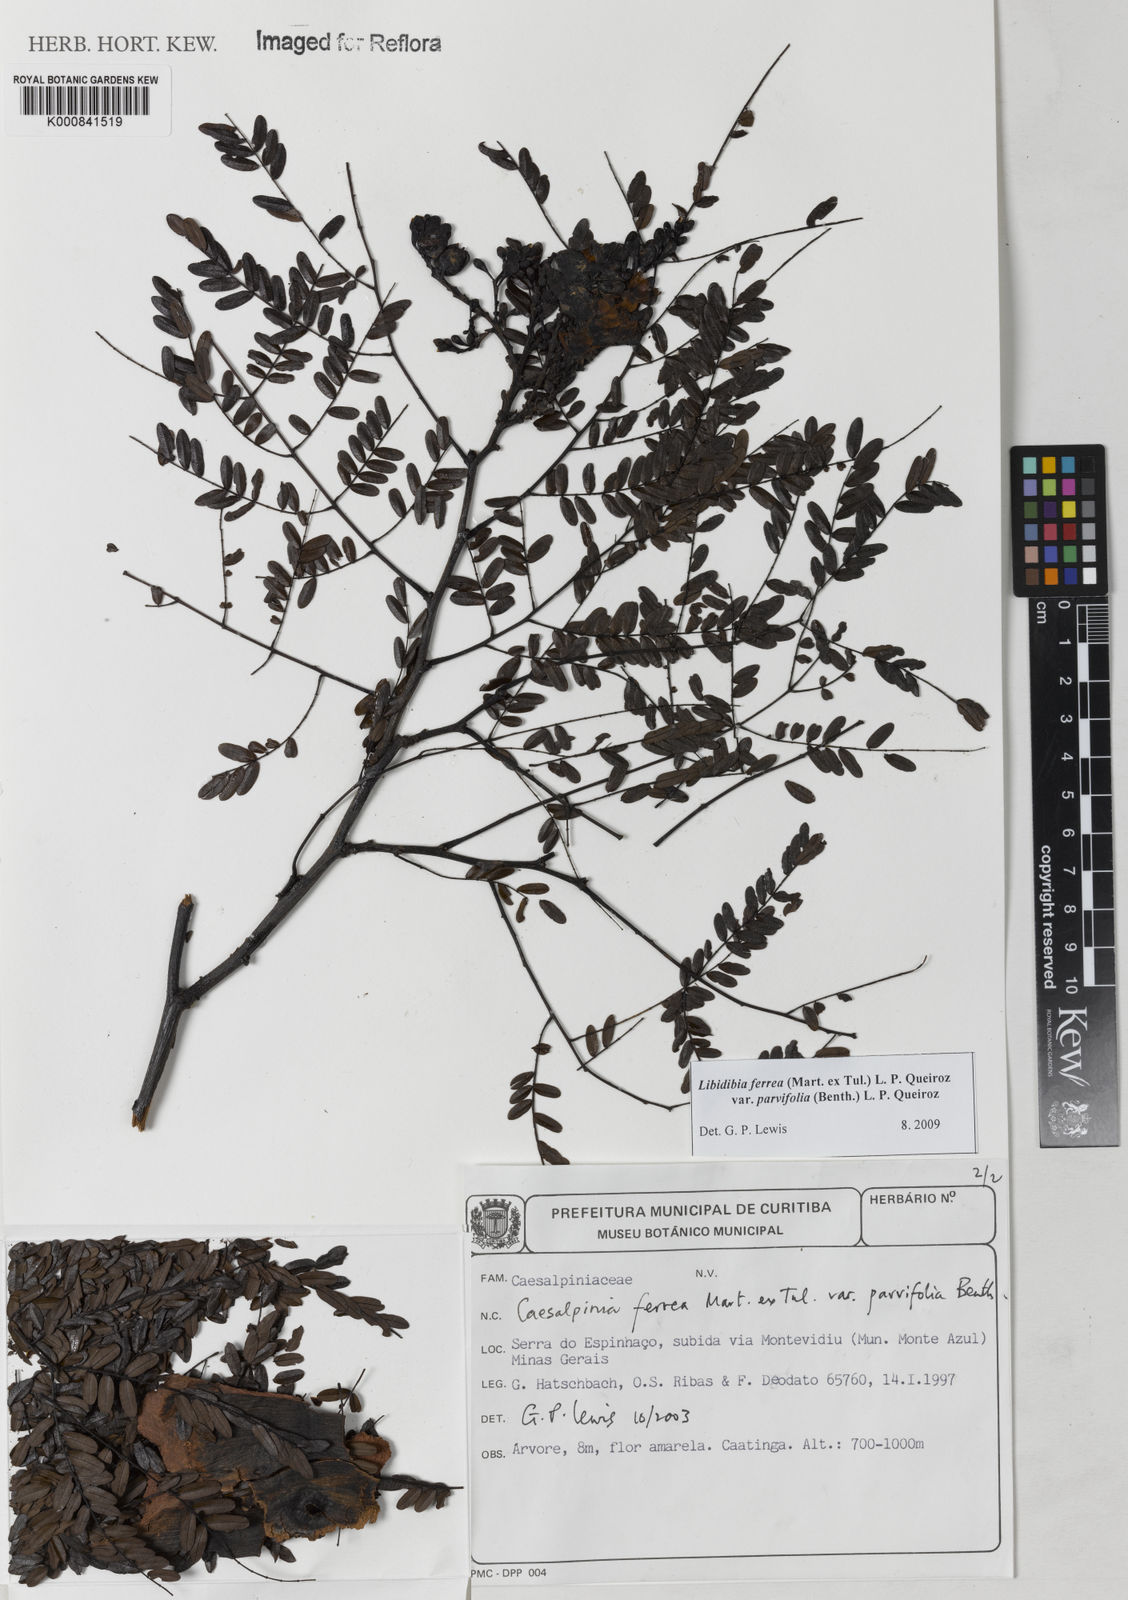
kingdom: Plantae
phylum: Tracheophyta
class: Magnoliopsida
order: Fabales
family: Fabaceae
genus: Cenostigma
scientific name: Cenostigma pyramidale
